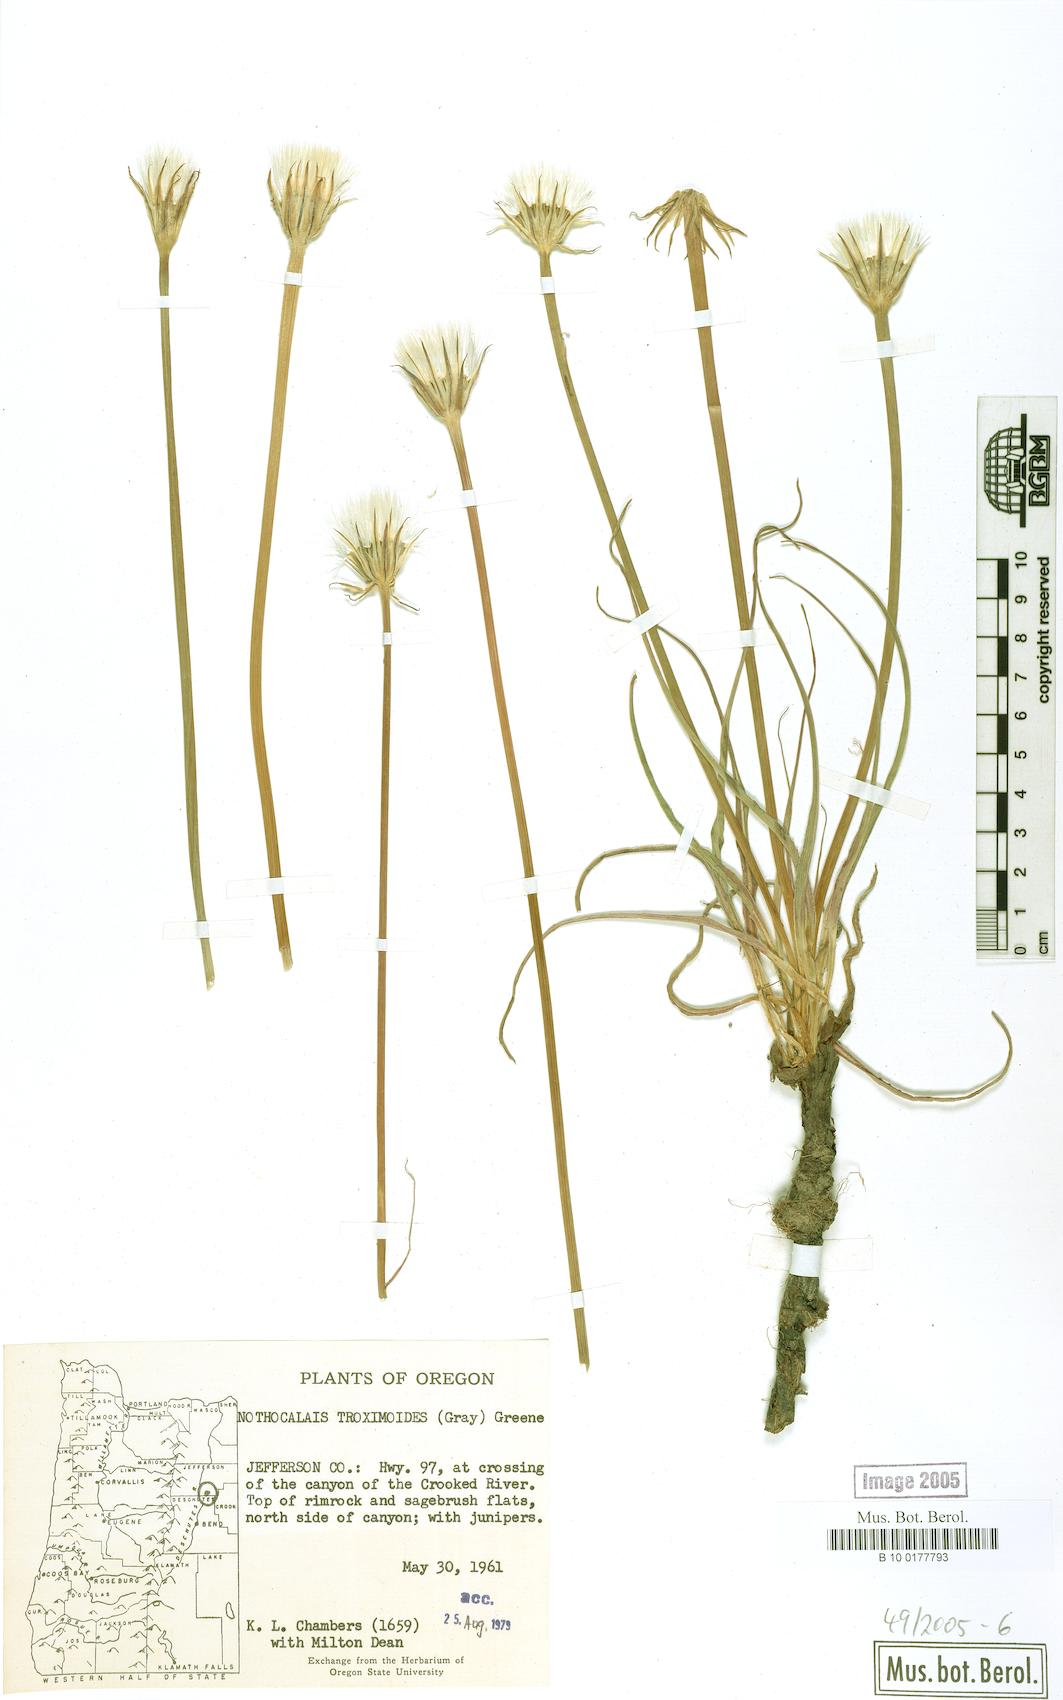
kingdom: Plantae
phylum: Tracheophyta
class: Magnoliopsida
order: Asterales
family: Asteraceae
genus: Microseris
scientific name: Microseris troximoides
